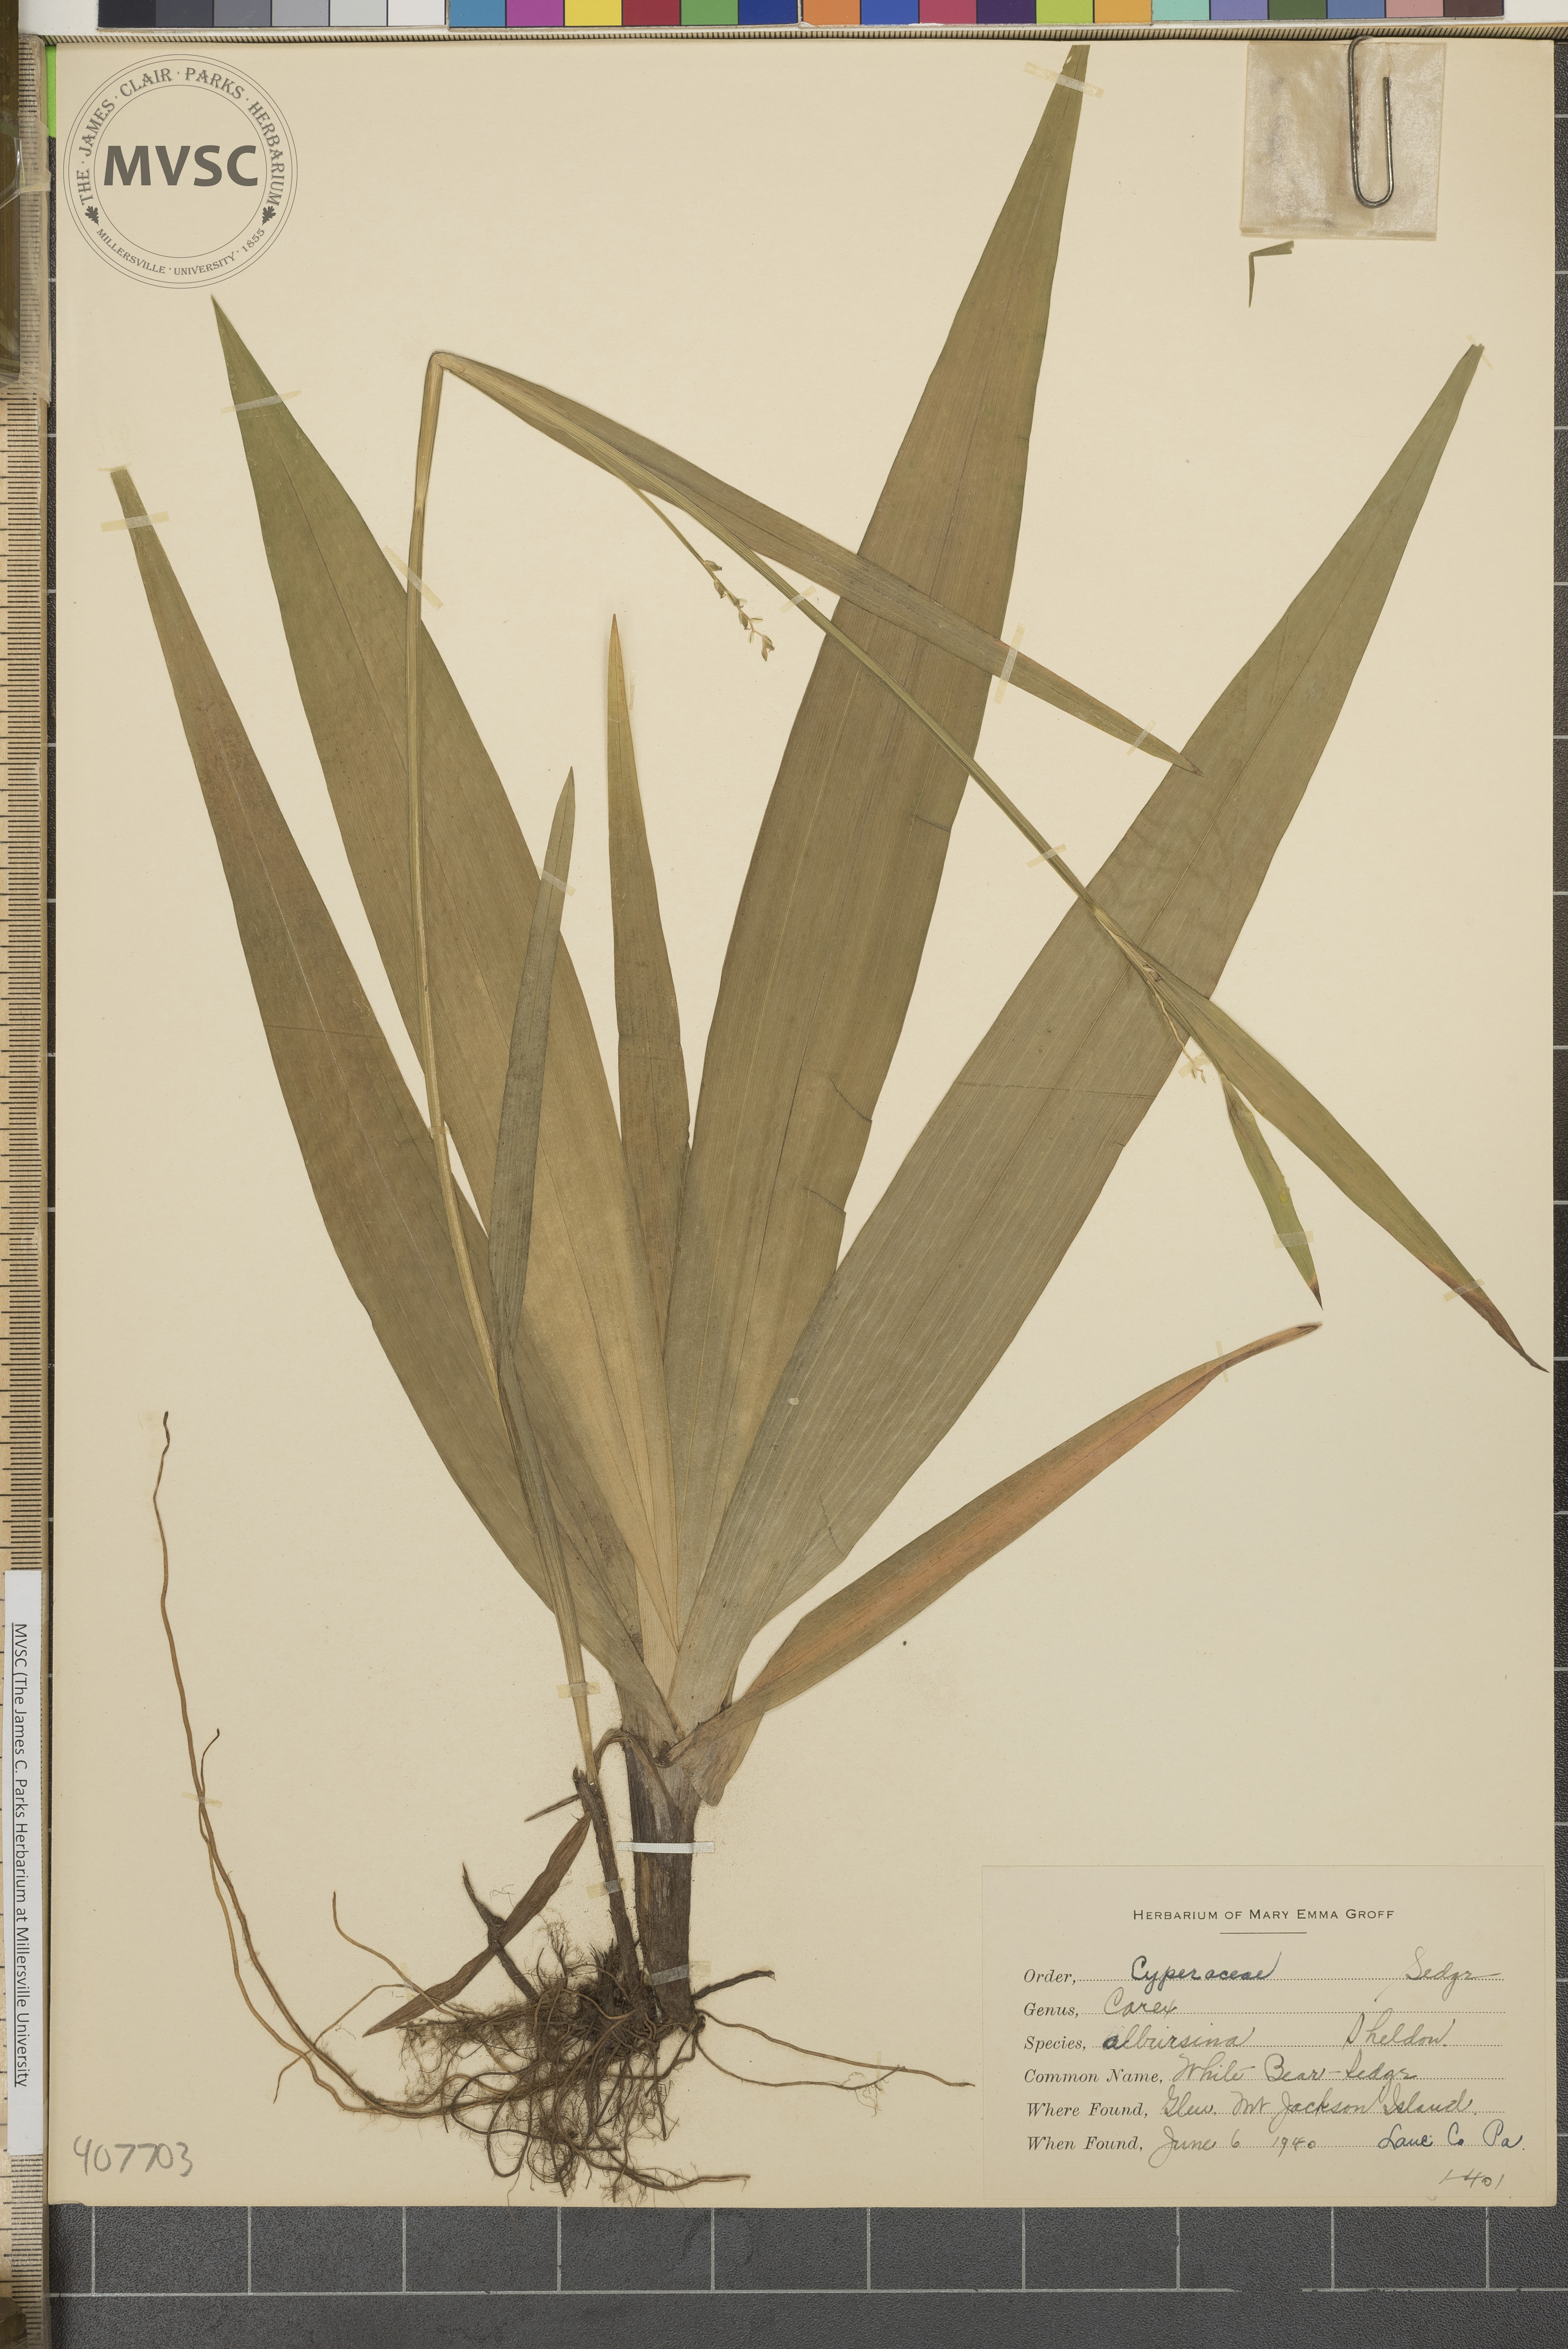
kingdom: Plantae
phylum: Tracheophyta
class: Liliopsida
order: Poales
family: Cyperaceae
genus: Carex
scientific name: Carex albursina
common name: White Bear Sedge
